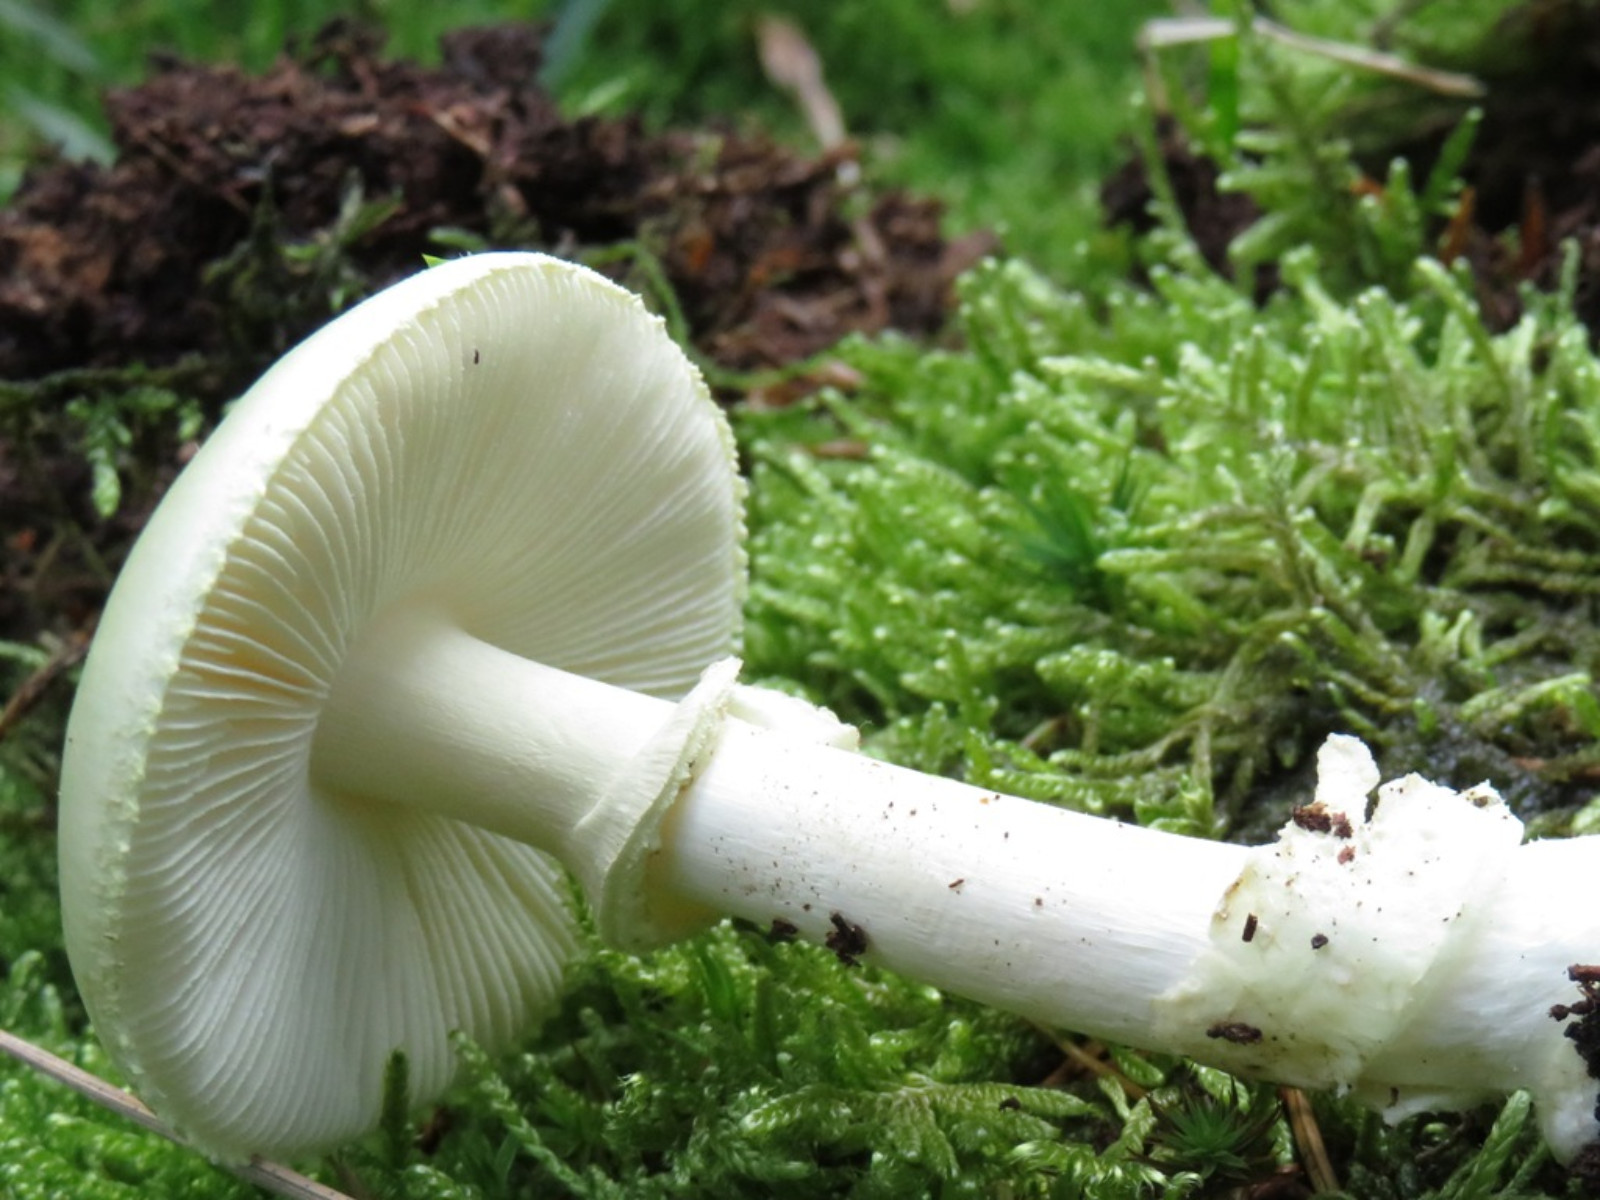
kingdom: Fungi
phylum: Basidiomycota
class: Agaricomycetes
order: Agaricales
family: Amanitaceae
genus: Amanita
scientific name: Amanita citrina
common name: kugleknoldet fluesvamp
